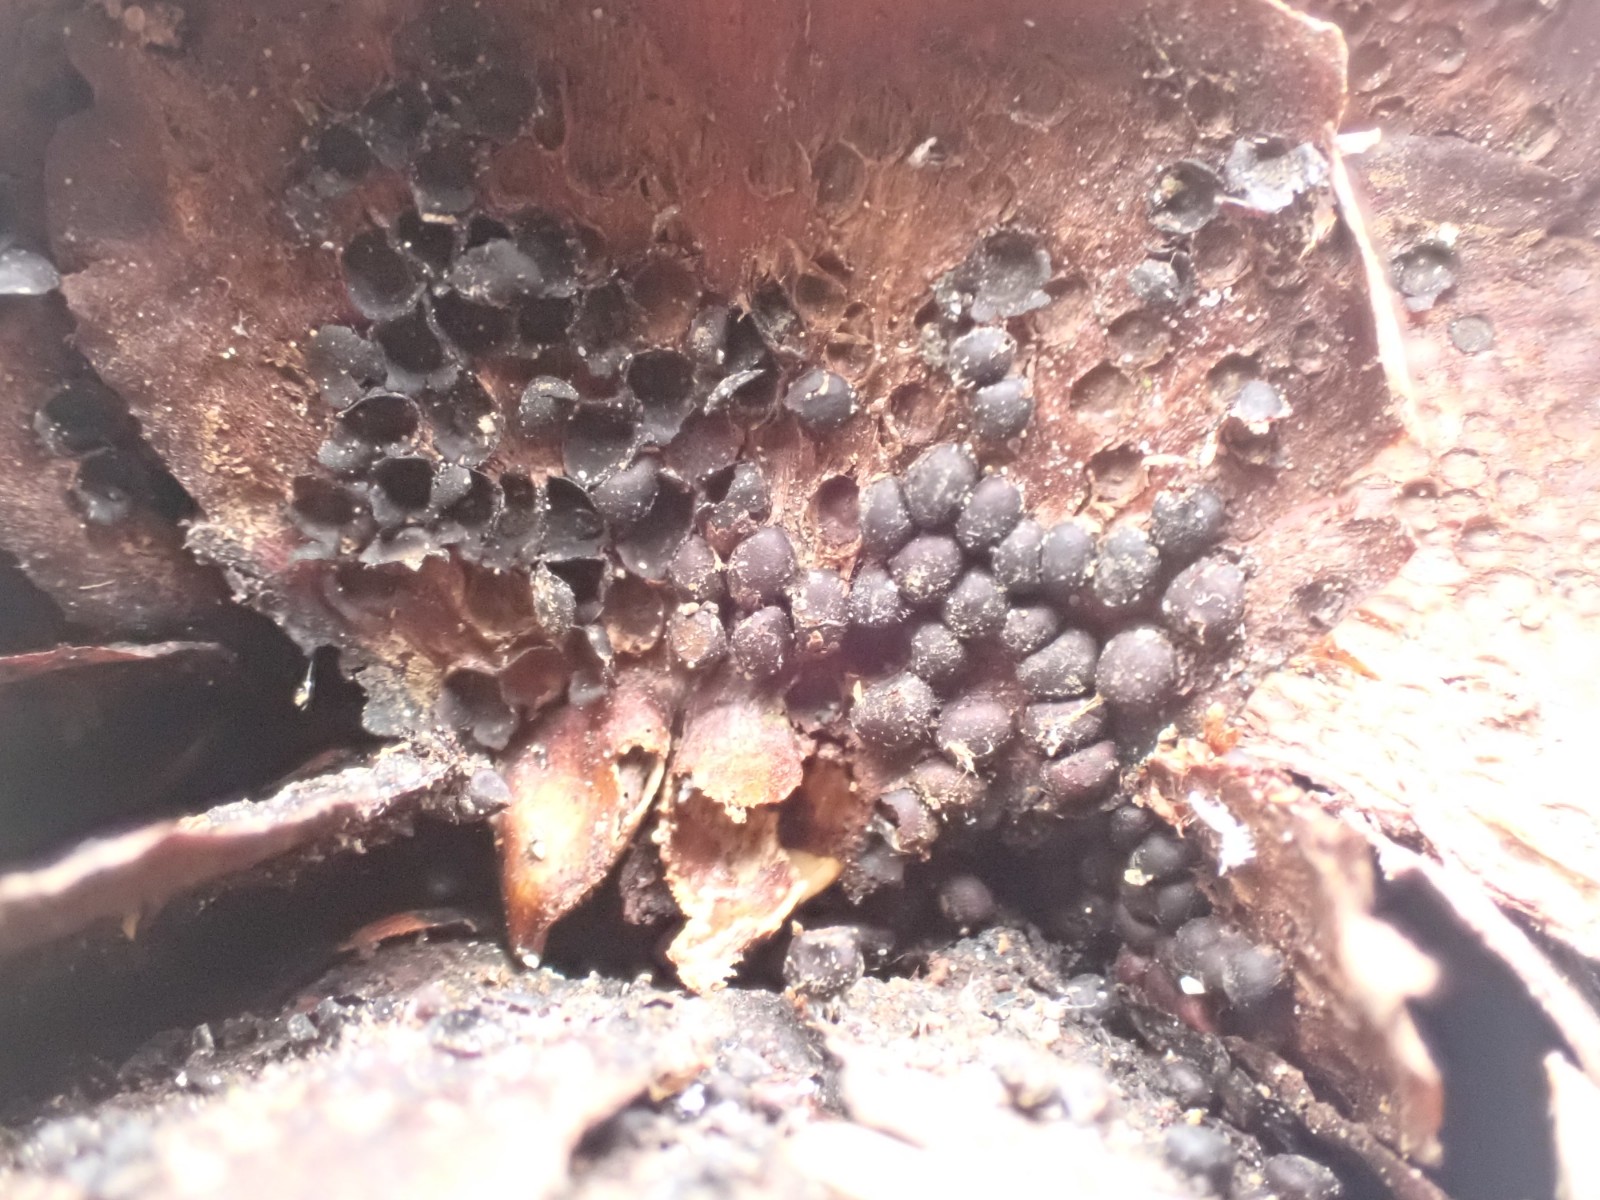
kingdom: Fungi
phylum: Basidiomycota
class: Pucciniomycetes
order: Pucciniales
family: Pucciniastraceae
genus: Thekopsora
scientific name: Thekopsora areolata
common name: grankogle-nålerust
